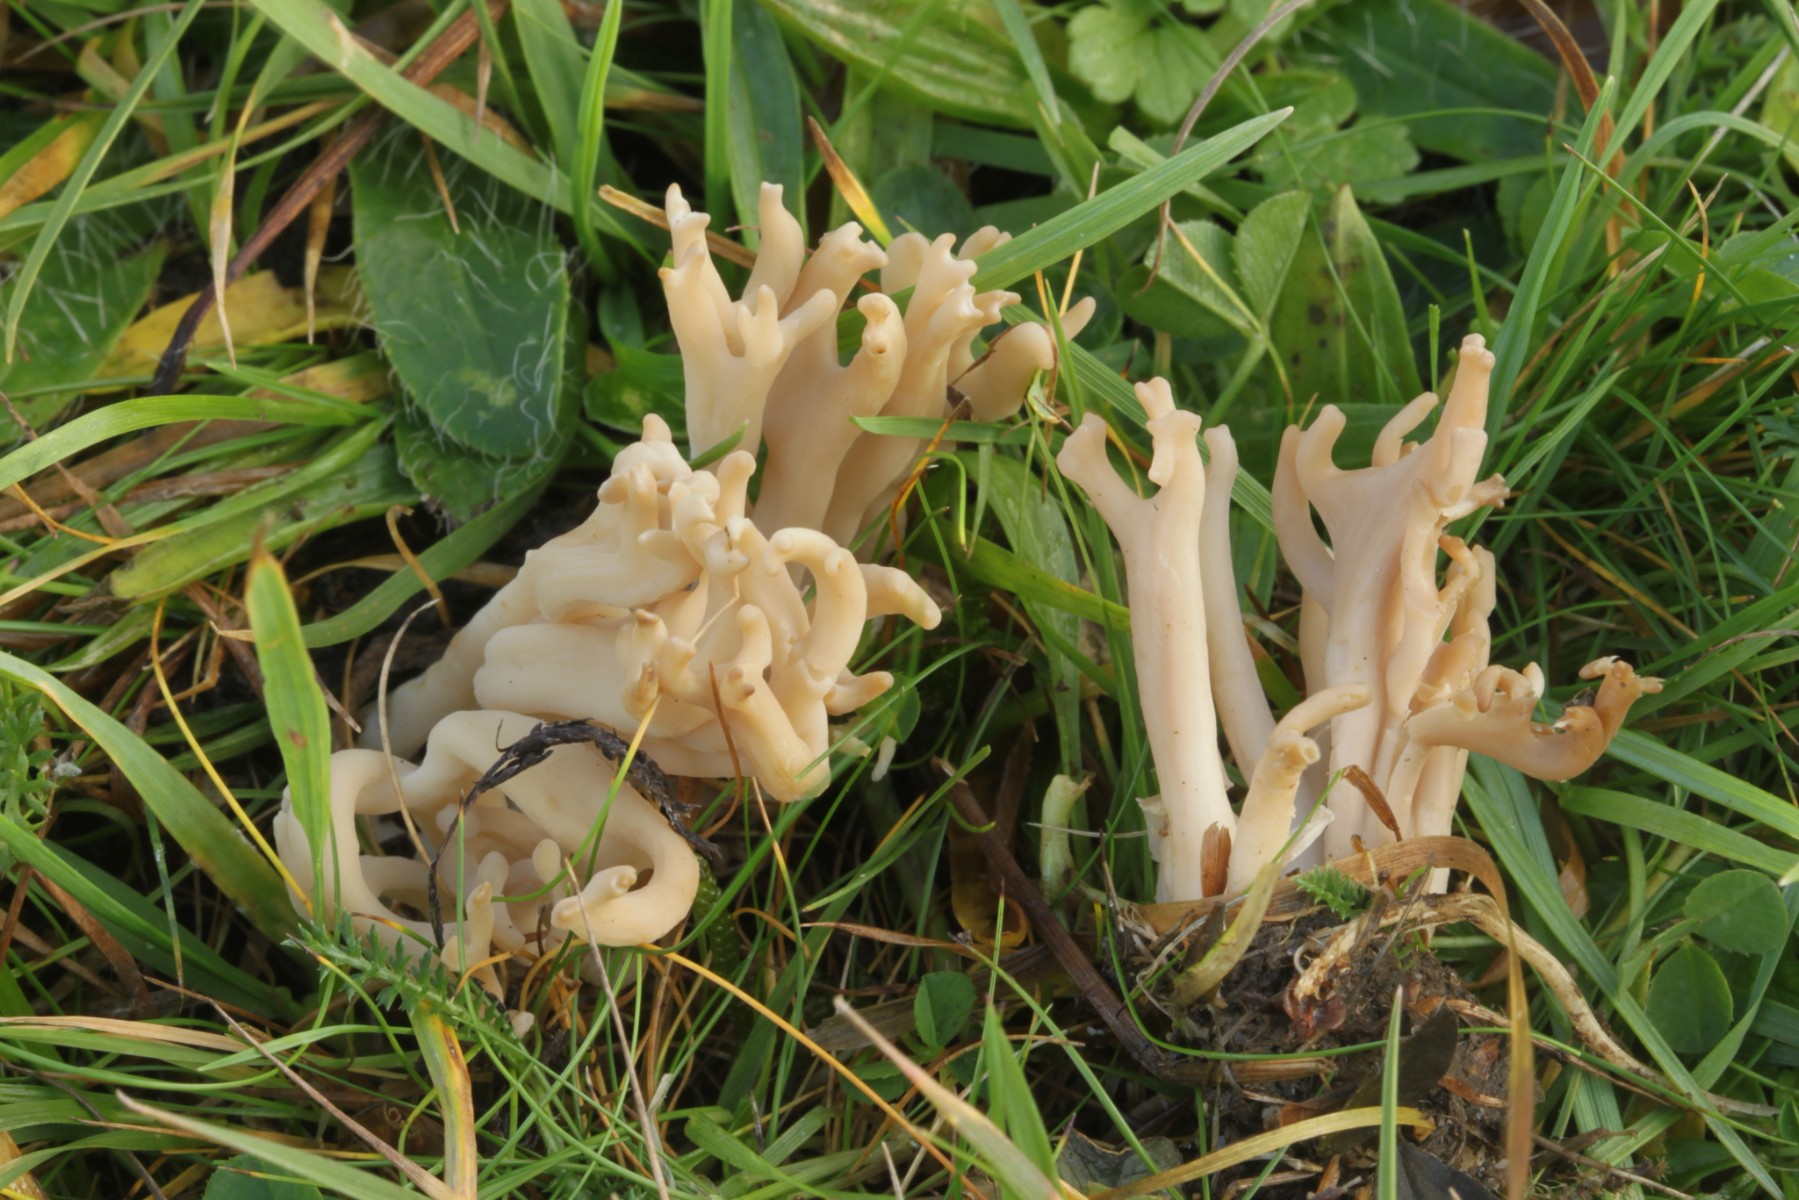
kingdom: Fungi
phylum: Basidiomycota
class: Agaricomycetes
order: Agaricales
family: Clavariaceae
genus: Clavulinopsis
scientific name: Clavulinopsis umbrinella
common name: gulgrå køllesvamp
